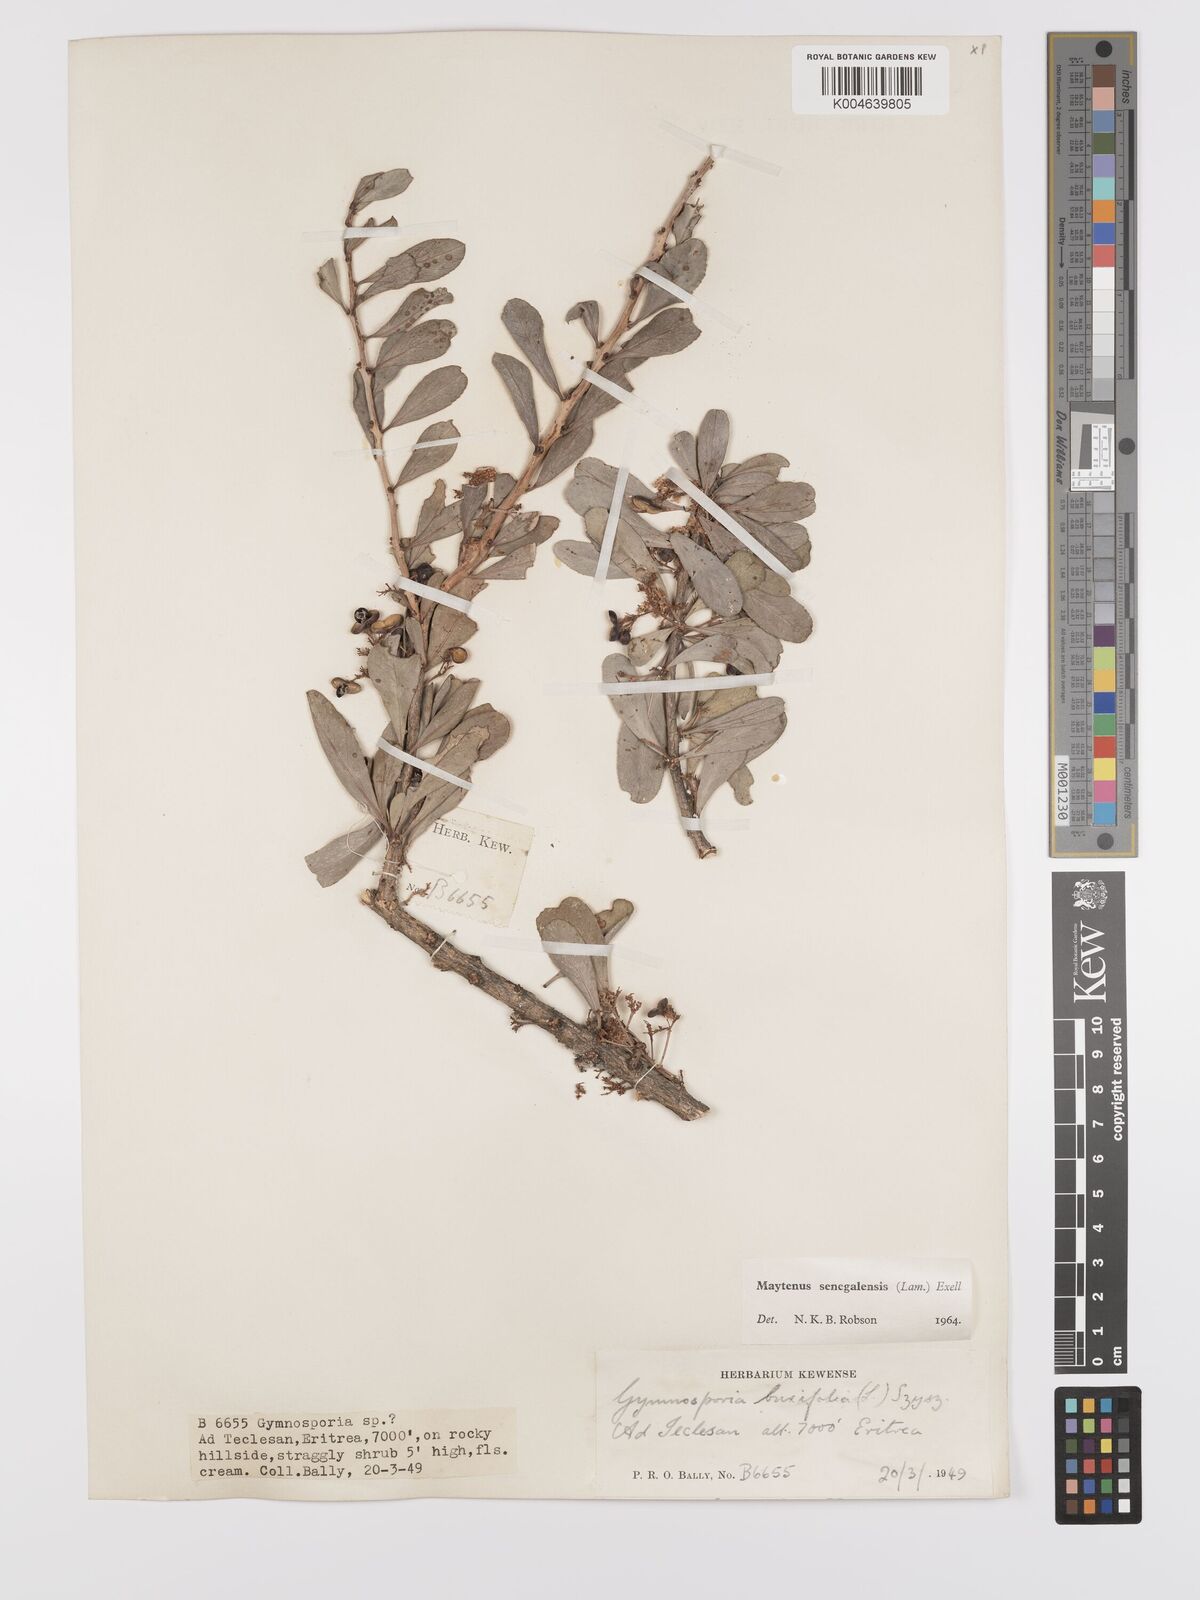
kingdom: Plantae
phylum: Tracheophyta
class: Magnoliopsida
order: Celastrales
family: Celastraceae
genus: Gymnosporia
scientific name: Gymnosporia senegalensis
